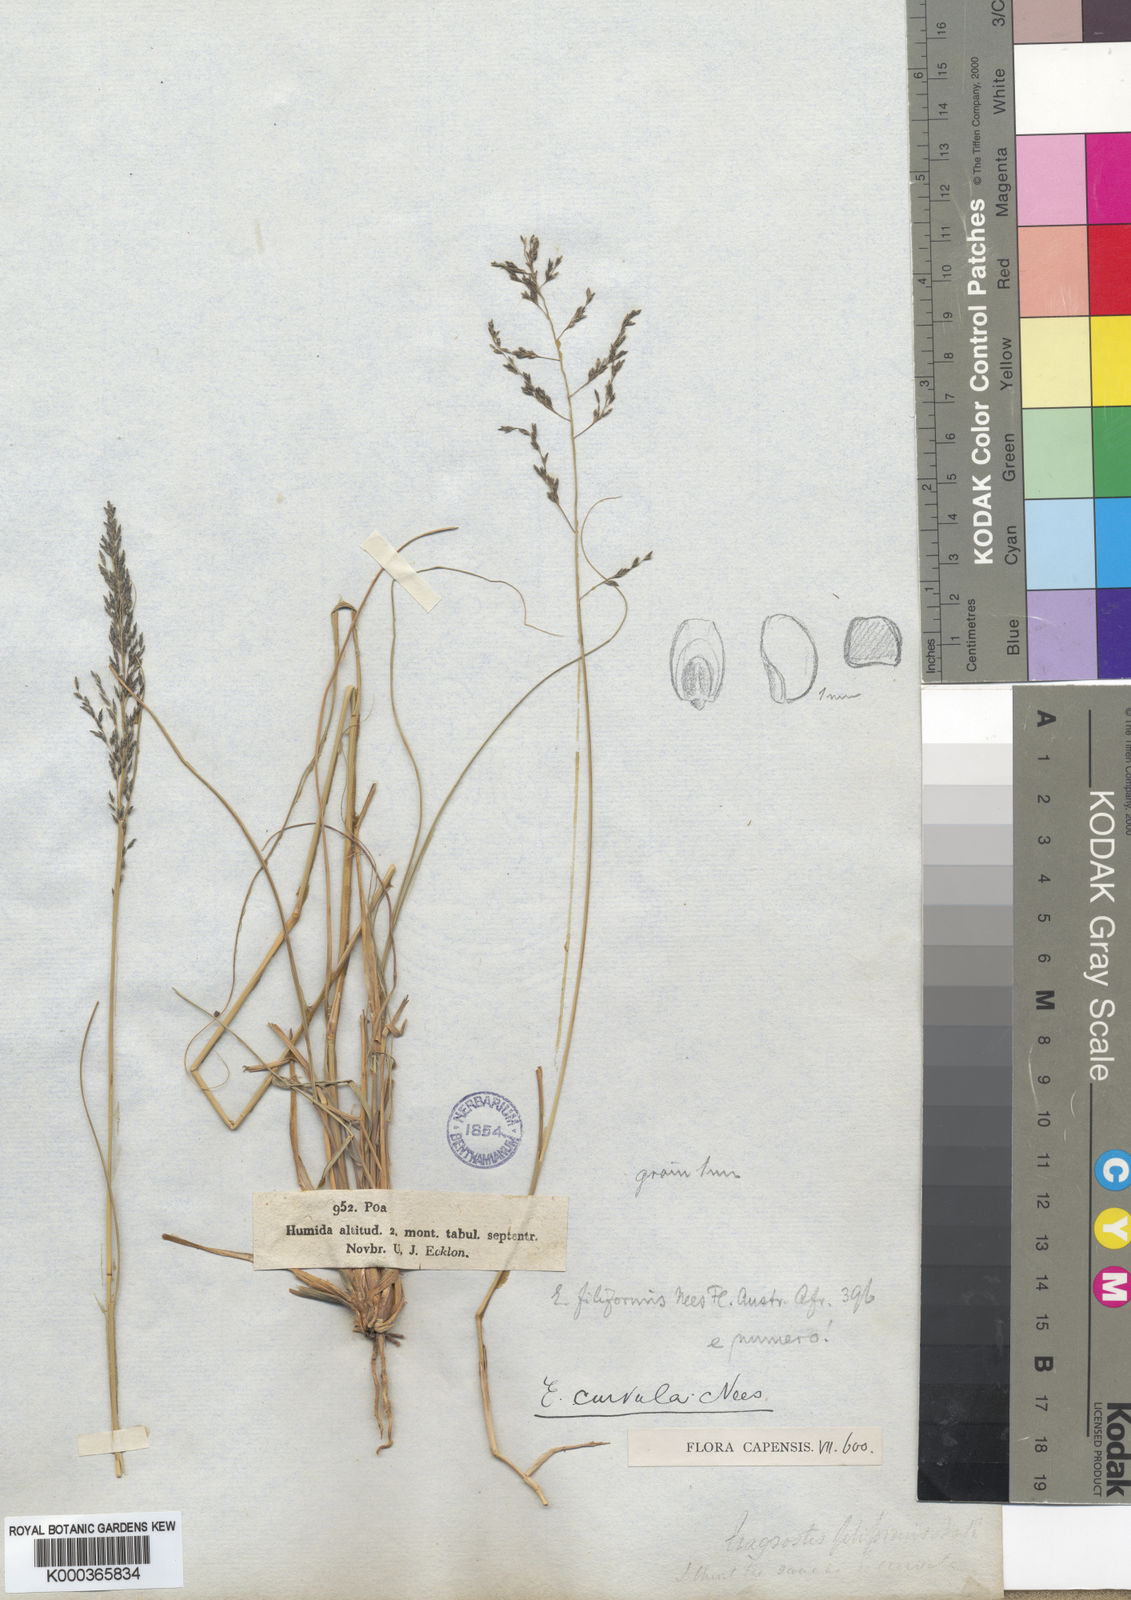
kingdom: Plantae
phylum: Tracheophyta
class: Liliopsida
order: Poales
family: Poaceae
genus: Eragrostis
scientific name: Eragrostis curvula
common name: African love-grass
